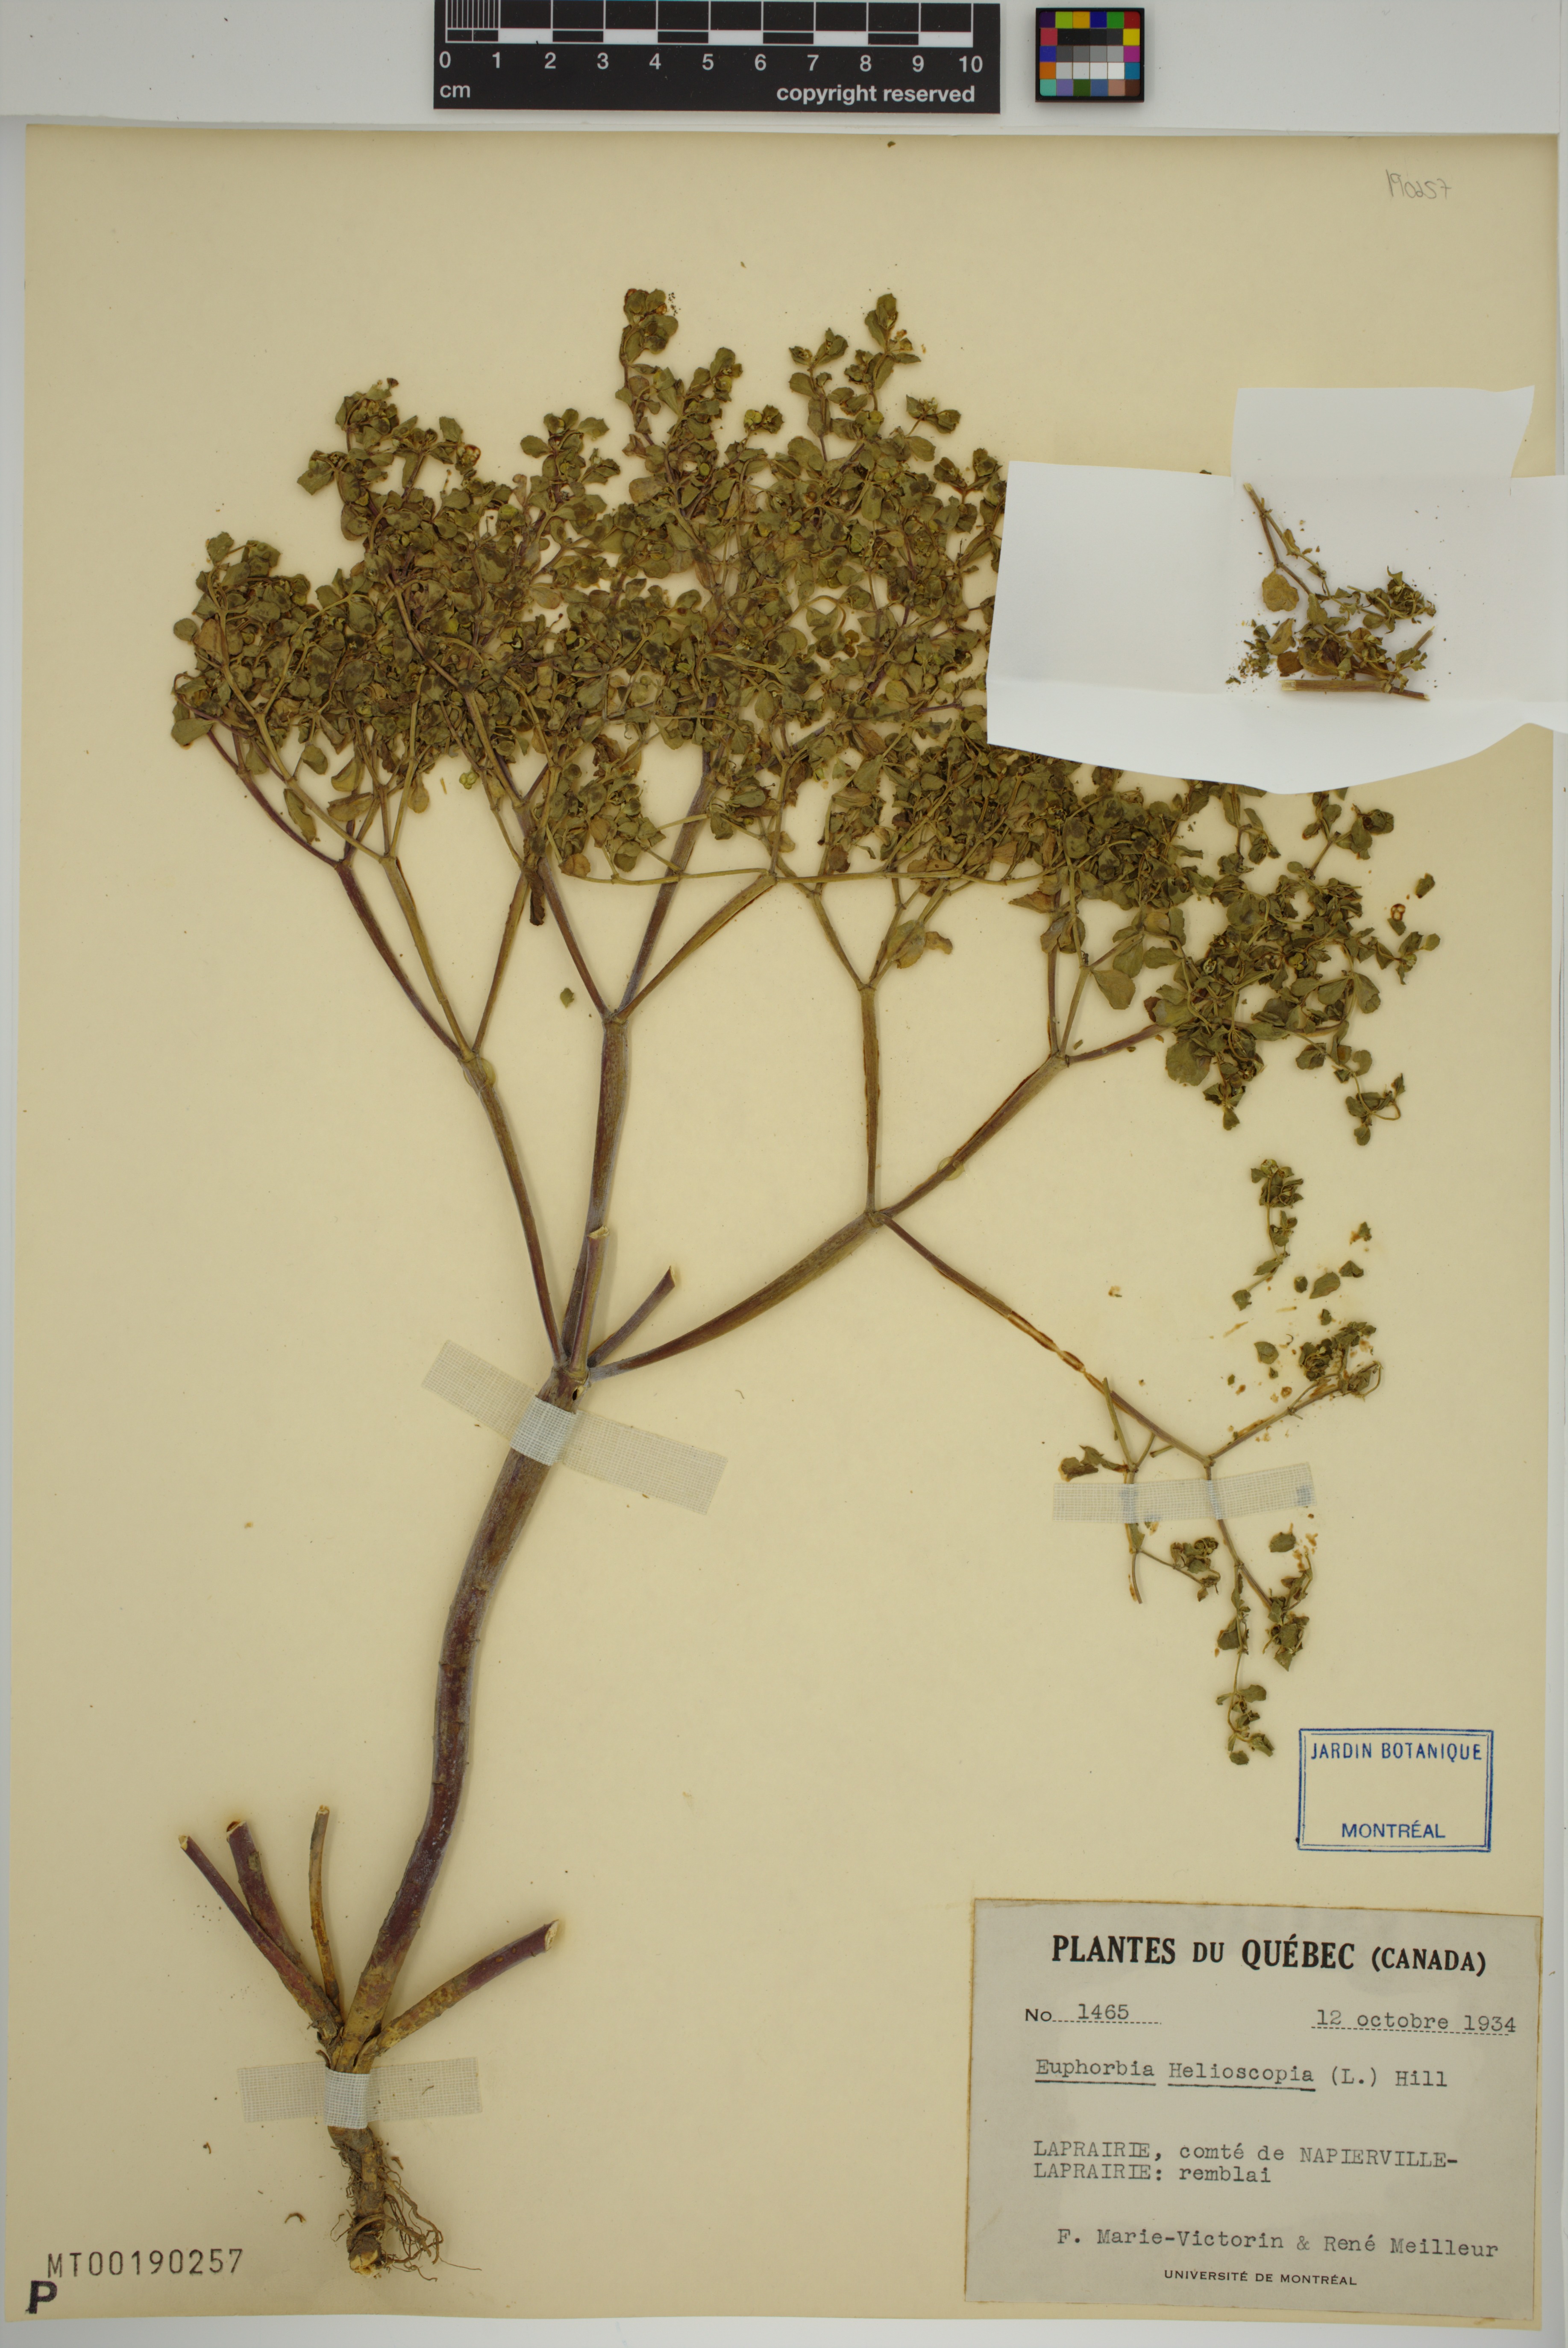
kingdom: Plantae
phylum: Tracheophyta
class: Magnoliopsida
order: Malpighiales
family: Euphorbiaceae
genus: Euphorbia
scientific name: Euphorbia helioscopia
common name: Sun spurge
